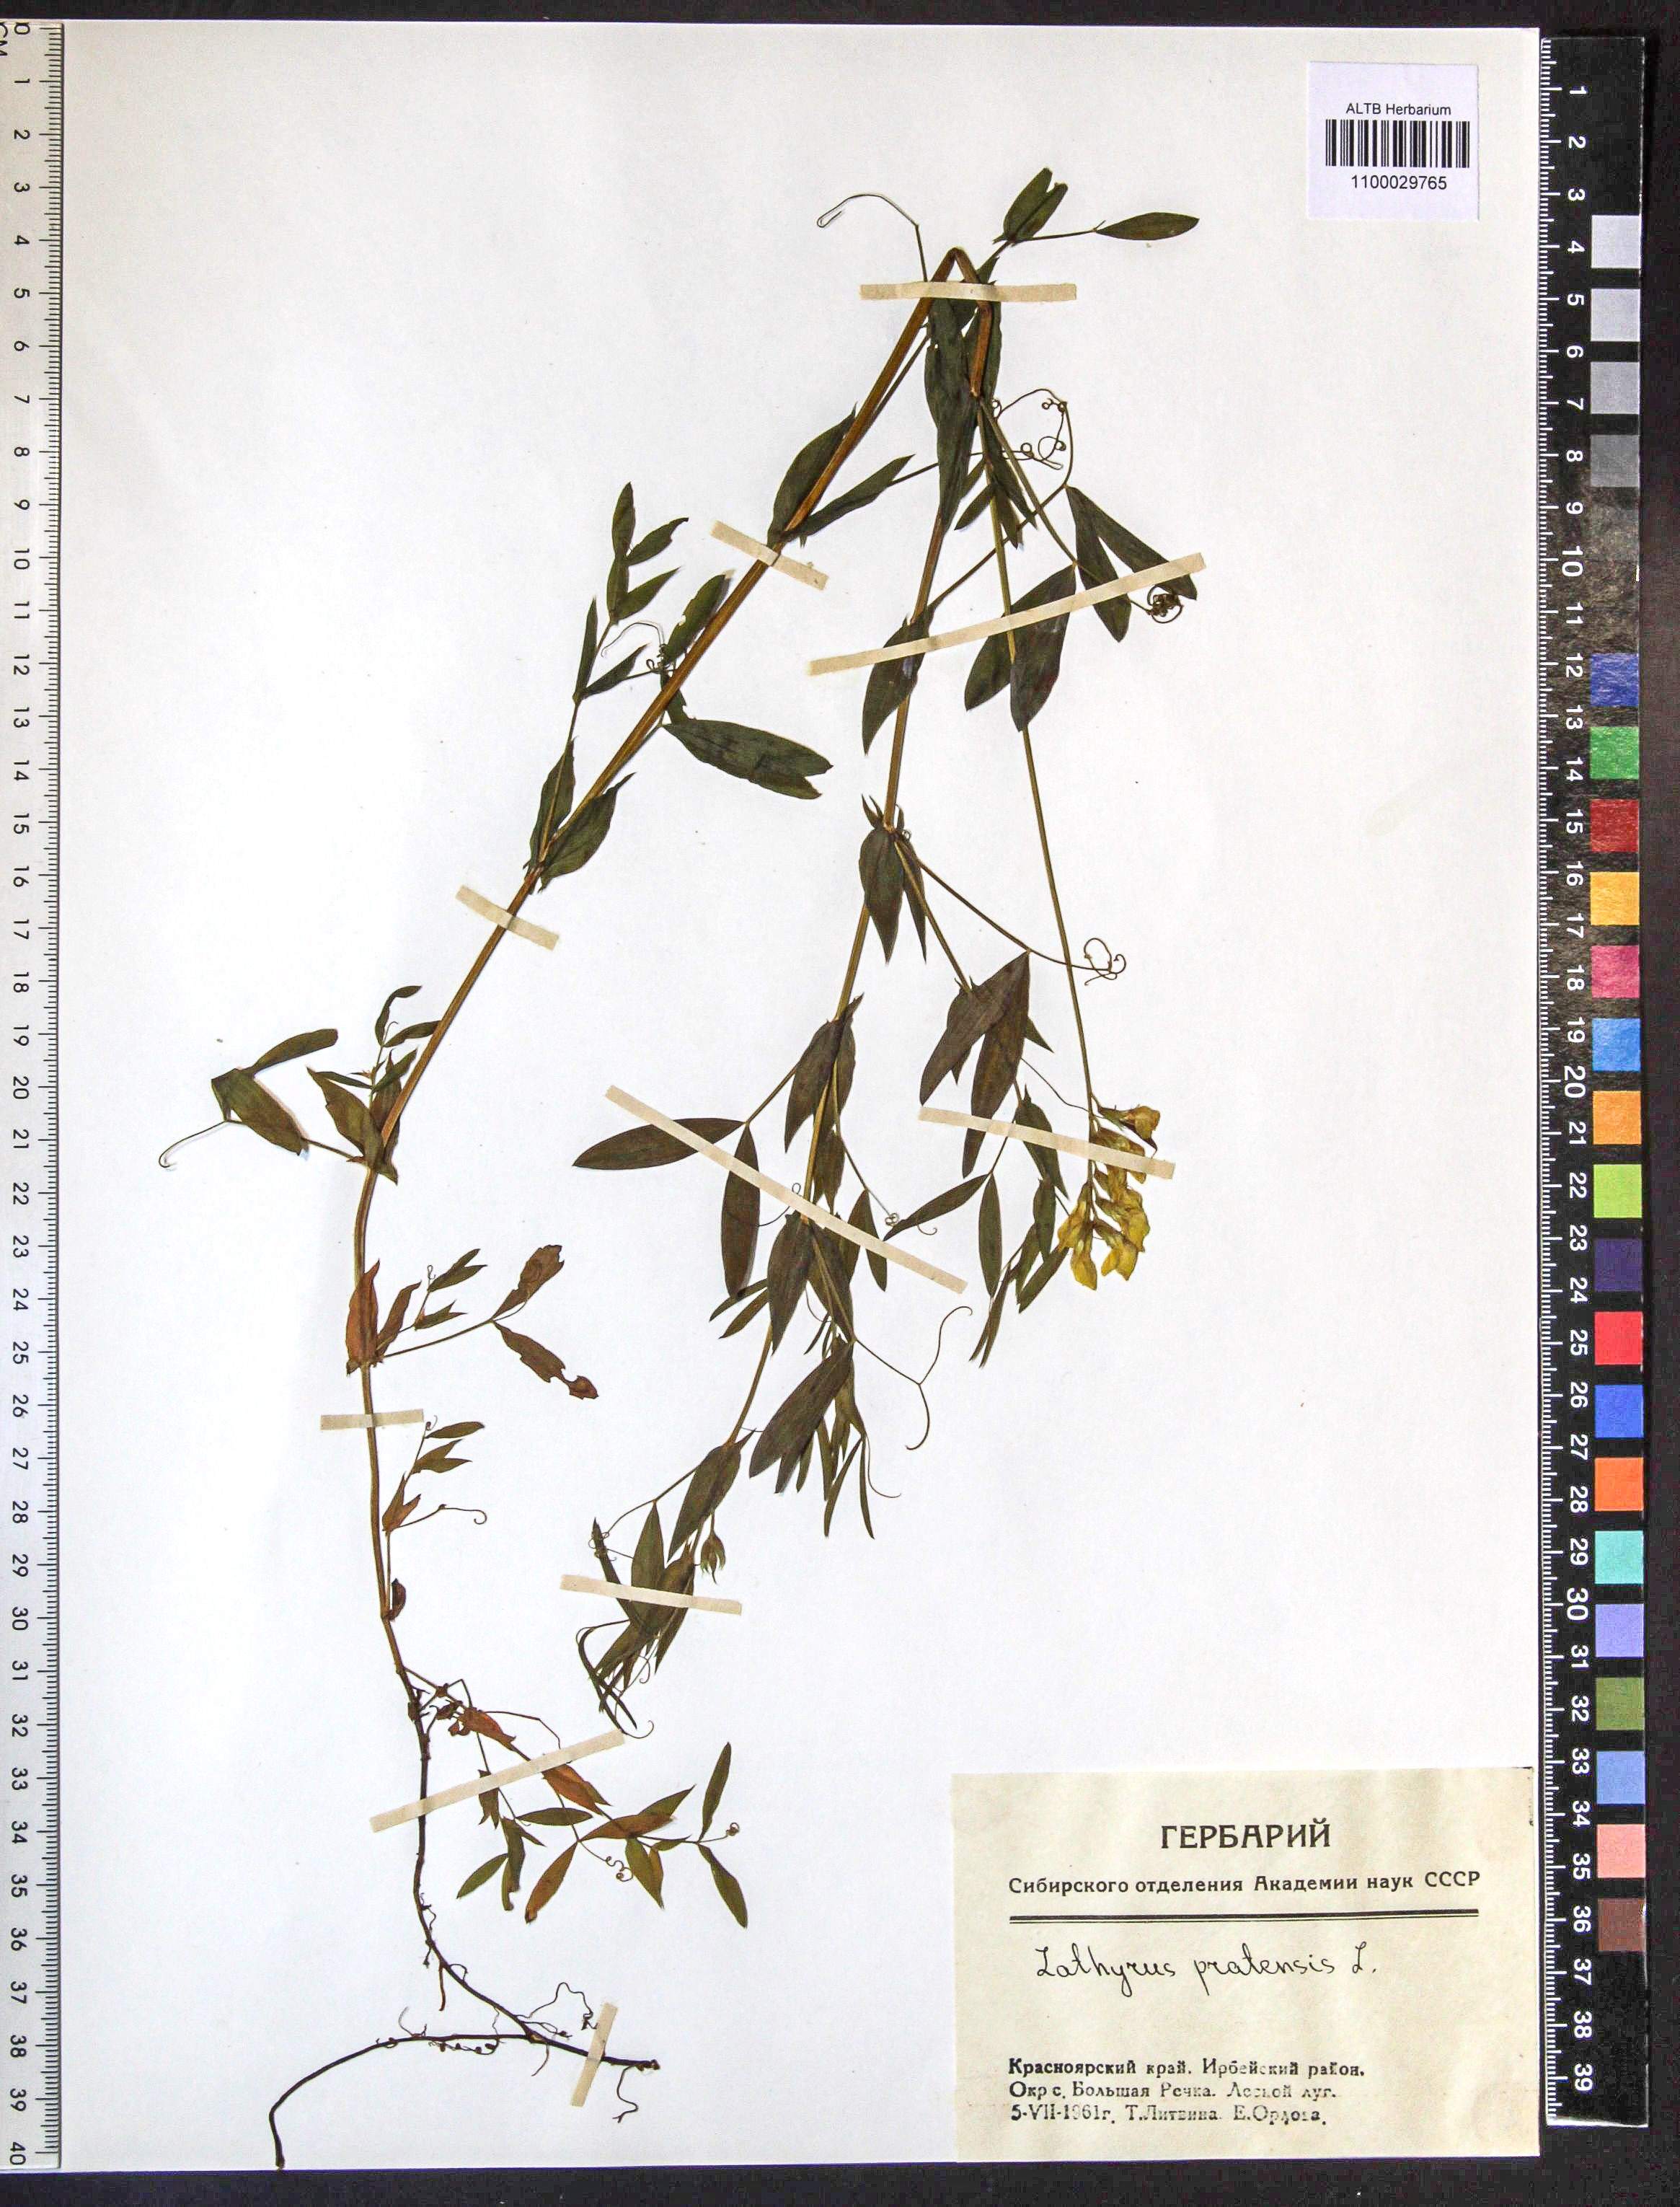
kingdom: Plantae
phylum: Tracheophyta
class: Magnoliopsida
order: Fabales
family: Fabaceae
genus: Lathyrus
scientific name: Lathyrus pratensis
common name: Meadow vetchling
